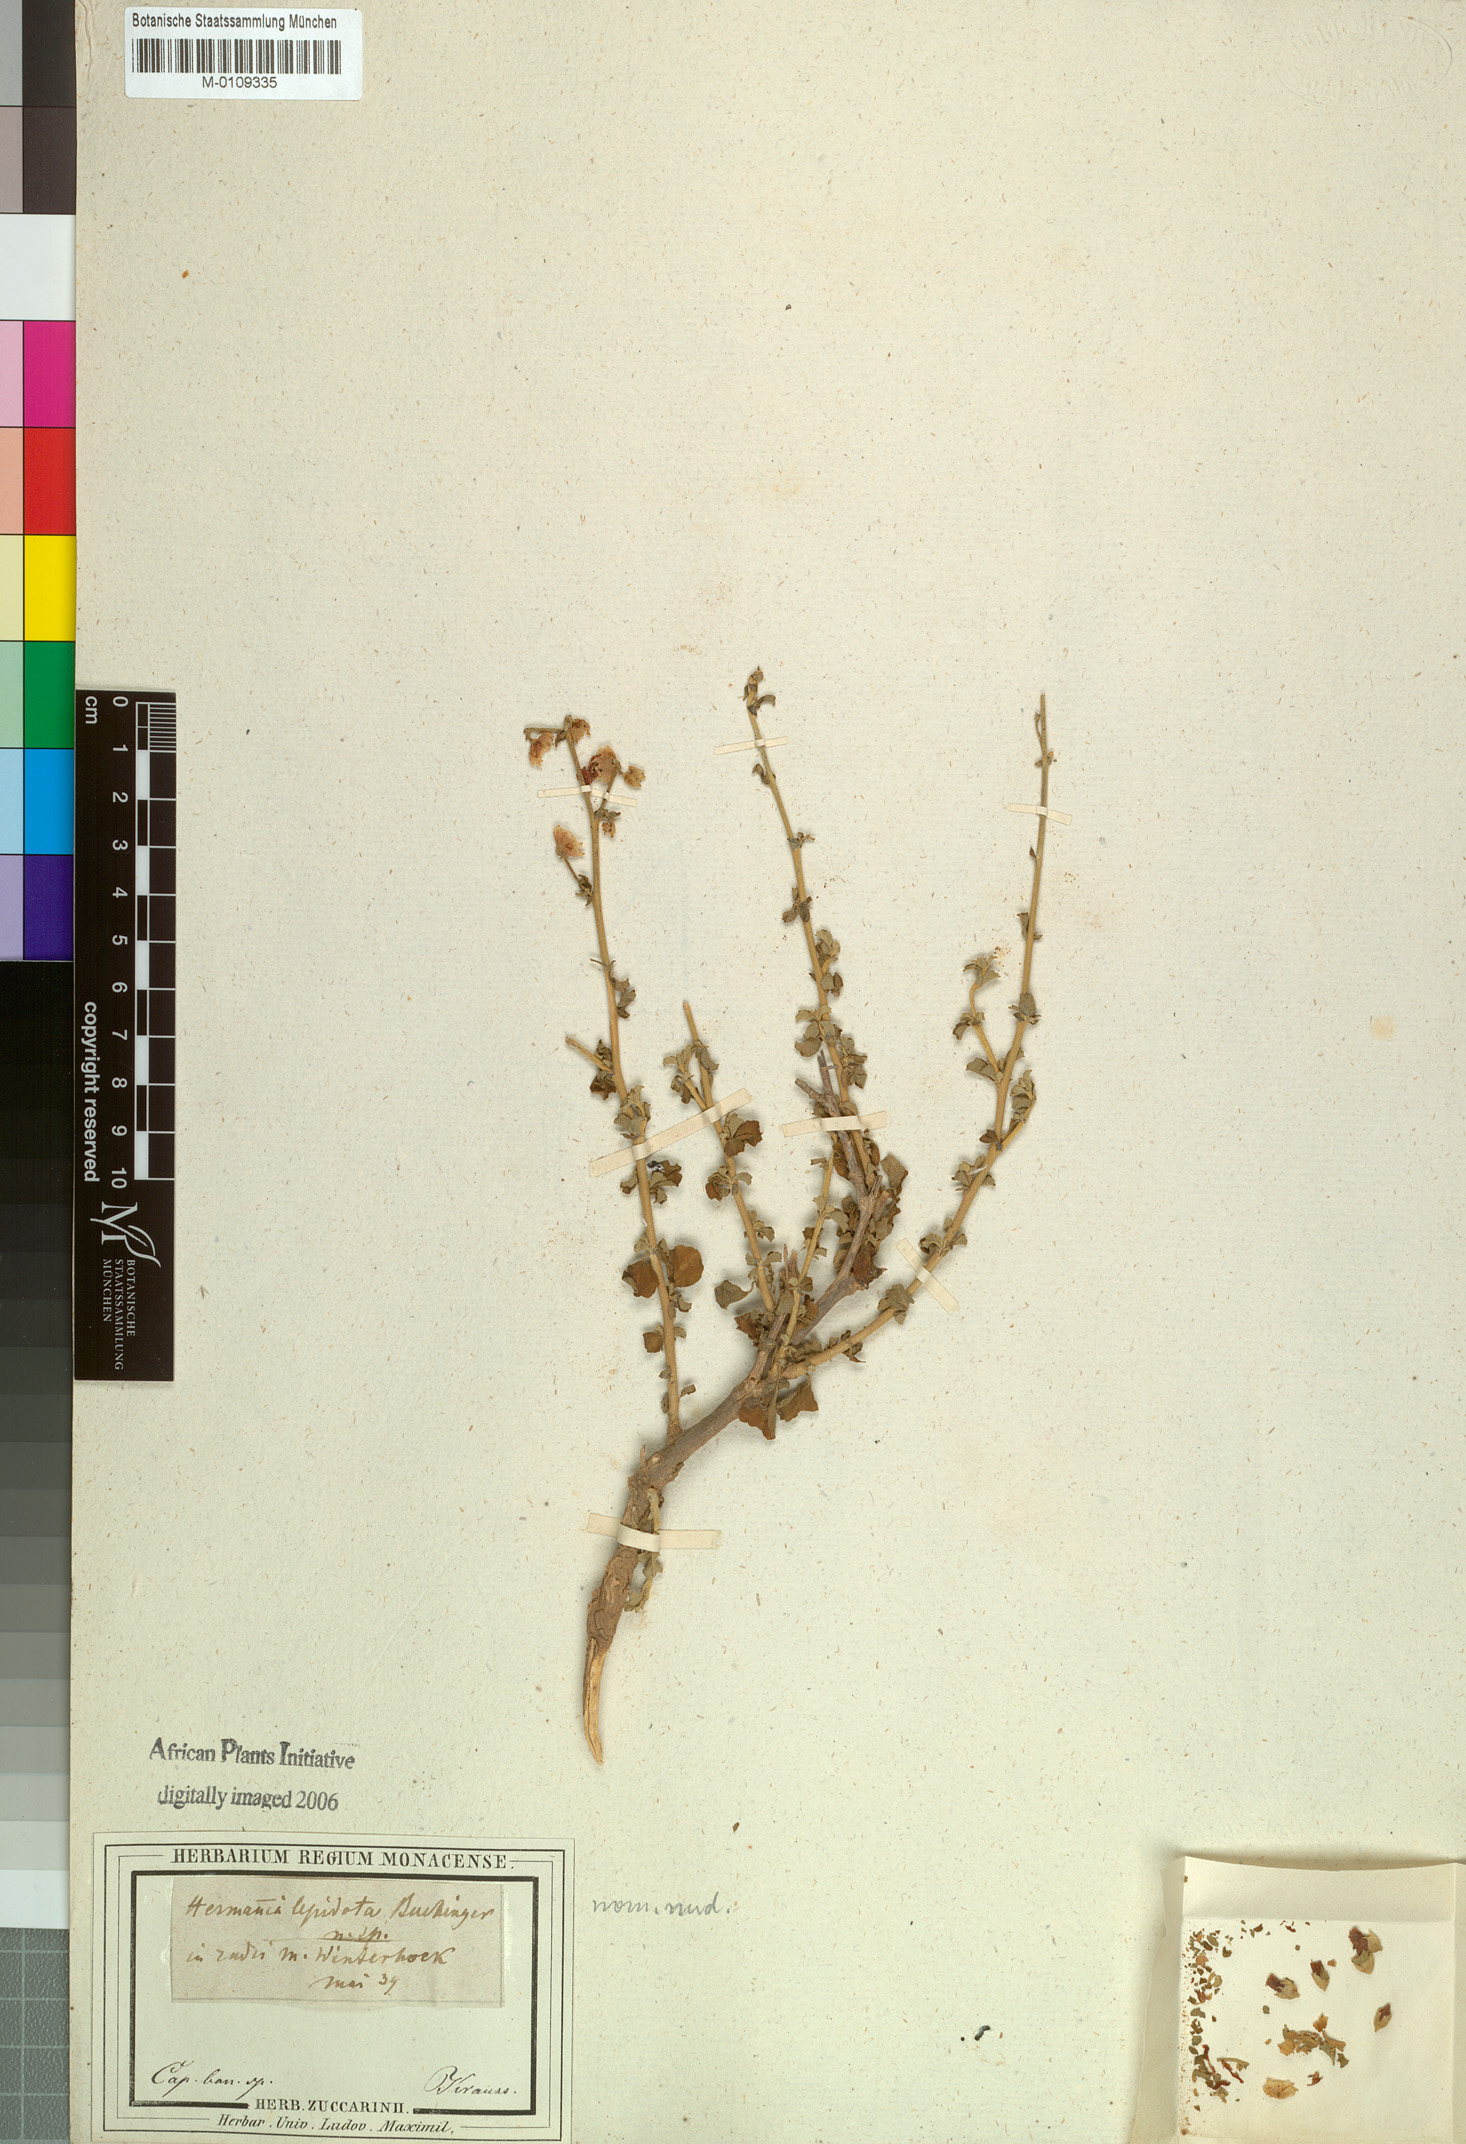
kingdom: Plantae
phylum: Tracheophyta
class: Magnoliopsida
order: Malvales
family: Malvaceae
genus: Hermannia
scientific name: Hermannia cuneifolia
